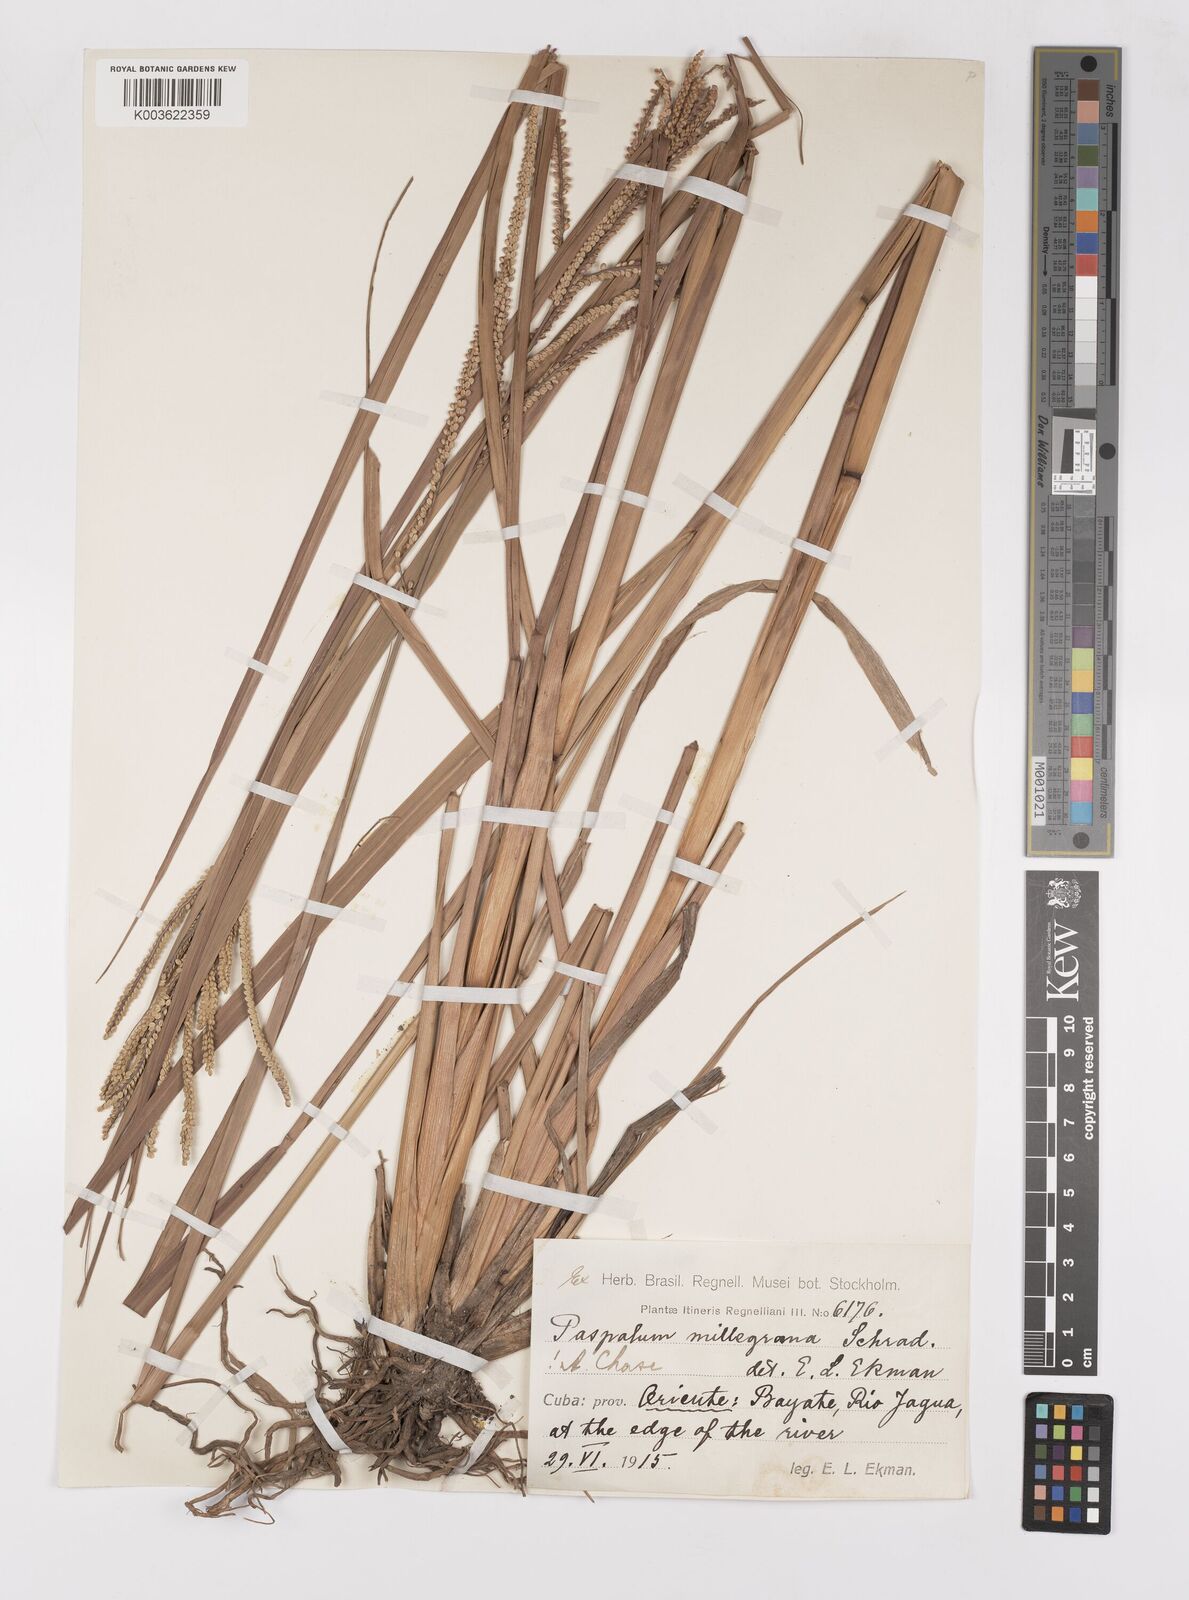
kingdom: Plantae
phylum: Tracheophyta
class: Liliopsida
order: Poales
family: Poaceae
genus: Paspalum
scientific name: Paspalum millegranum
